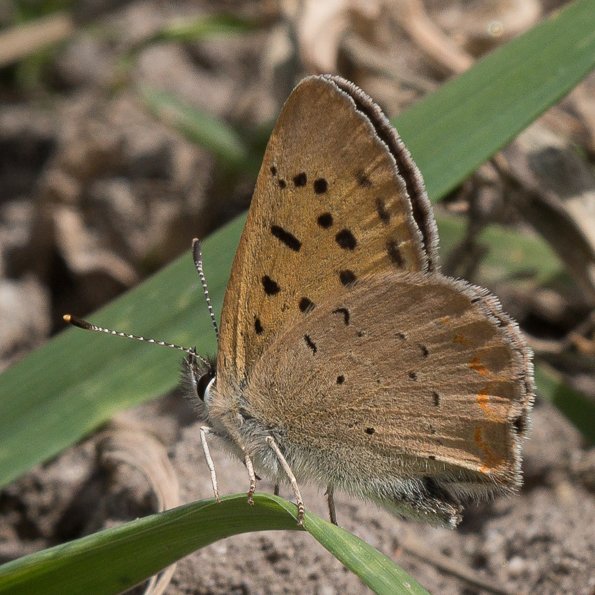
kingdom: Animalia
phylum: Arthropoda
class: Insecta
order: Lepidoptera
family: Sesiidae
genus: Sesia
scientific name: Sesia Lycaena helloides
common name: Purplish Copper
